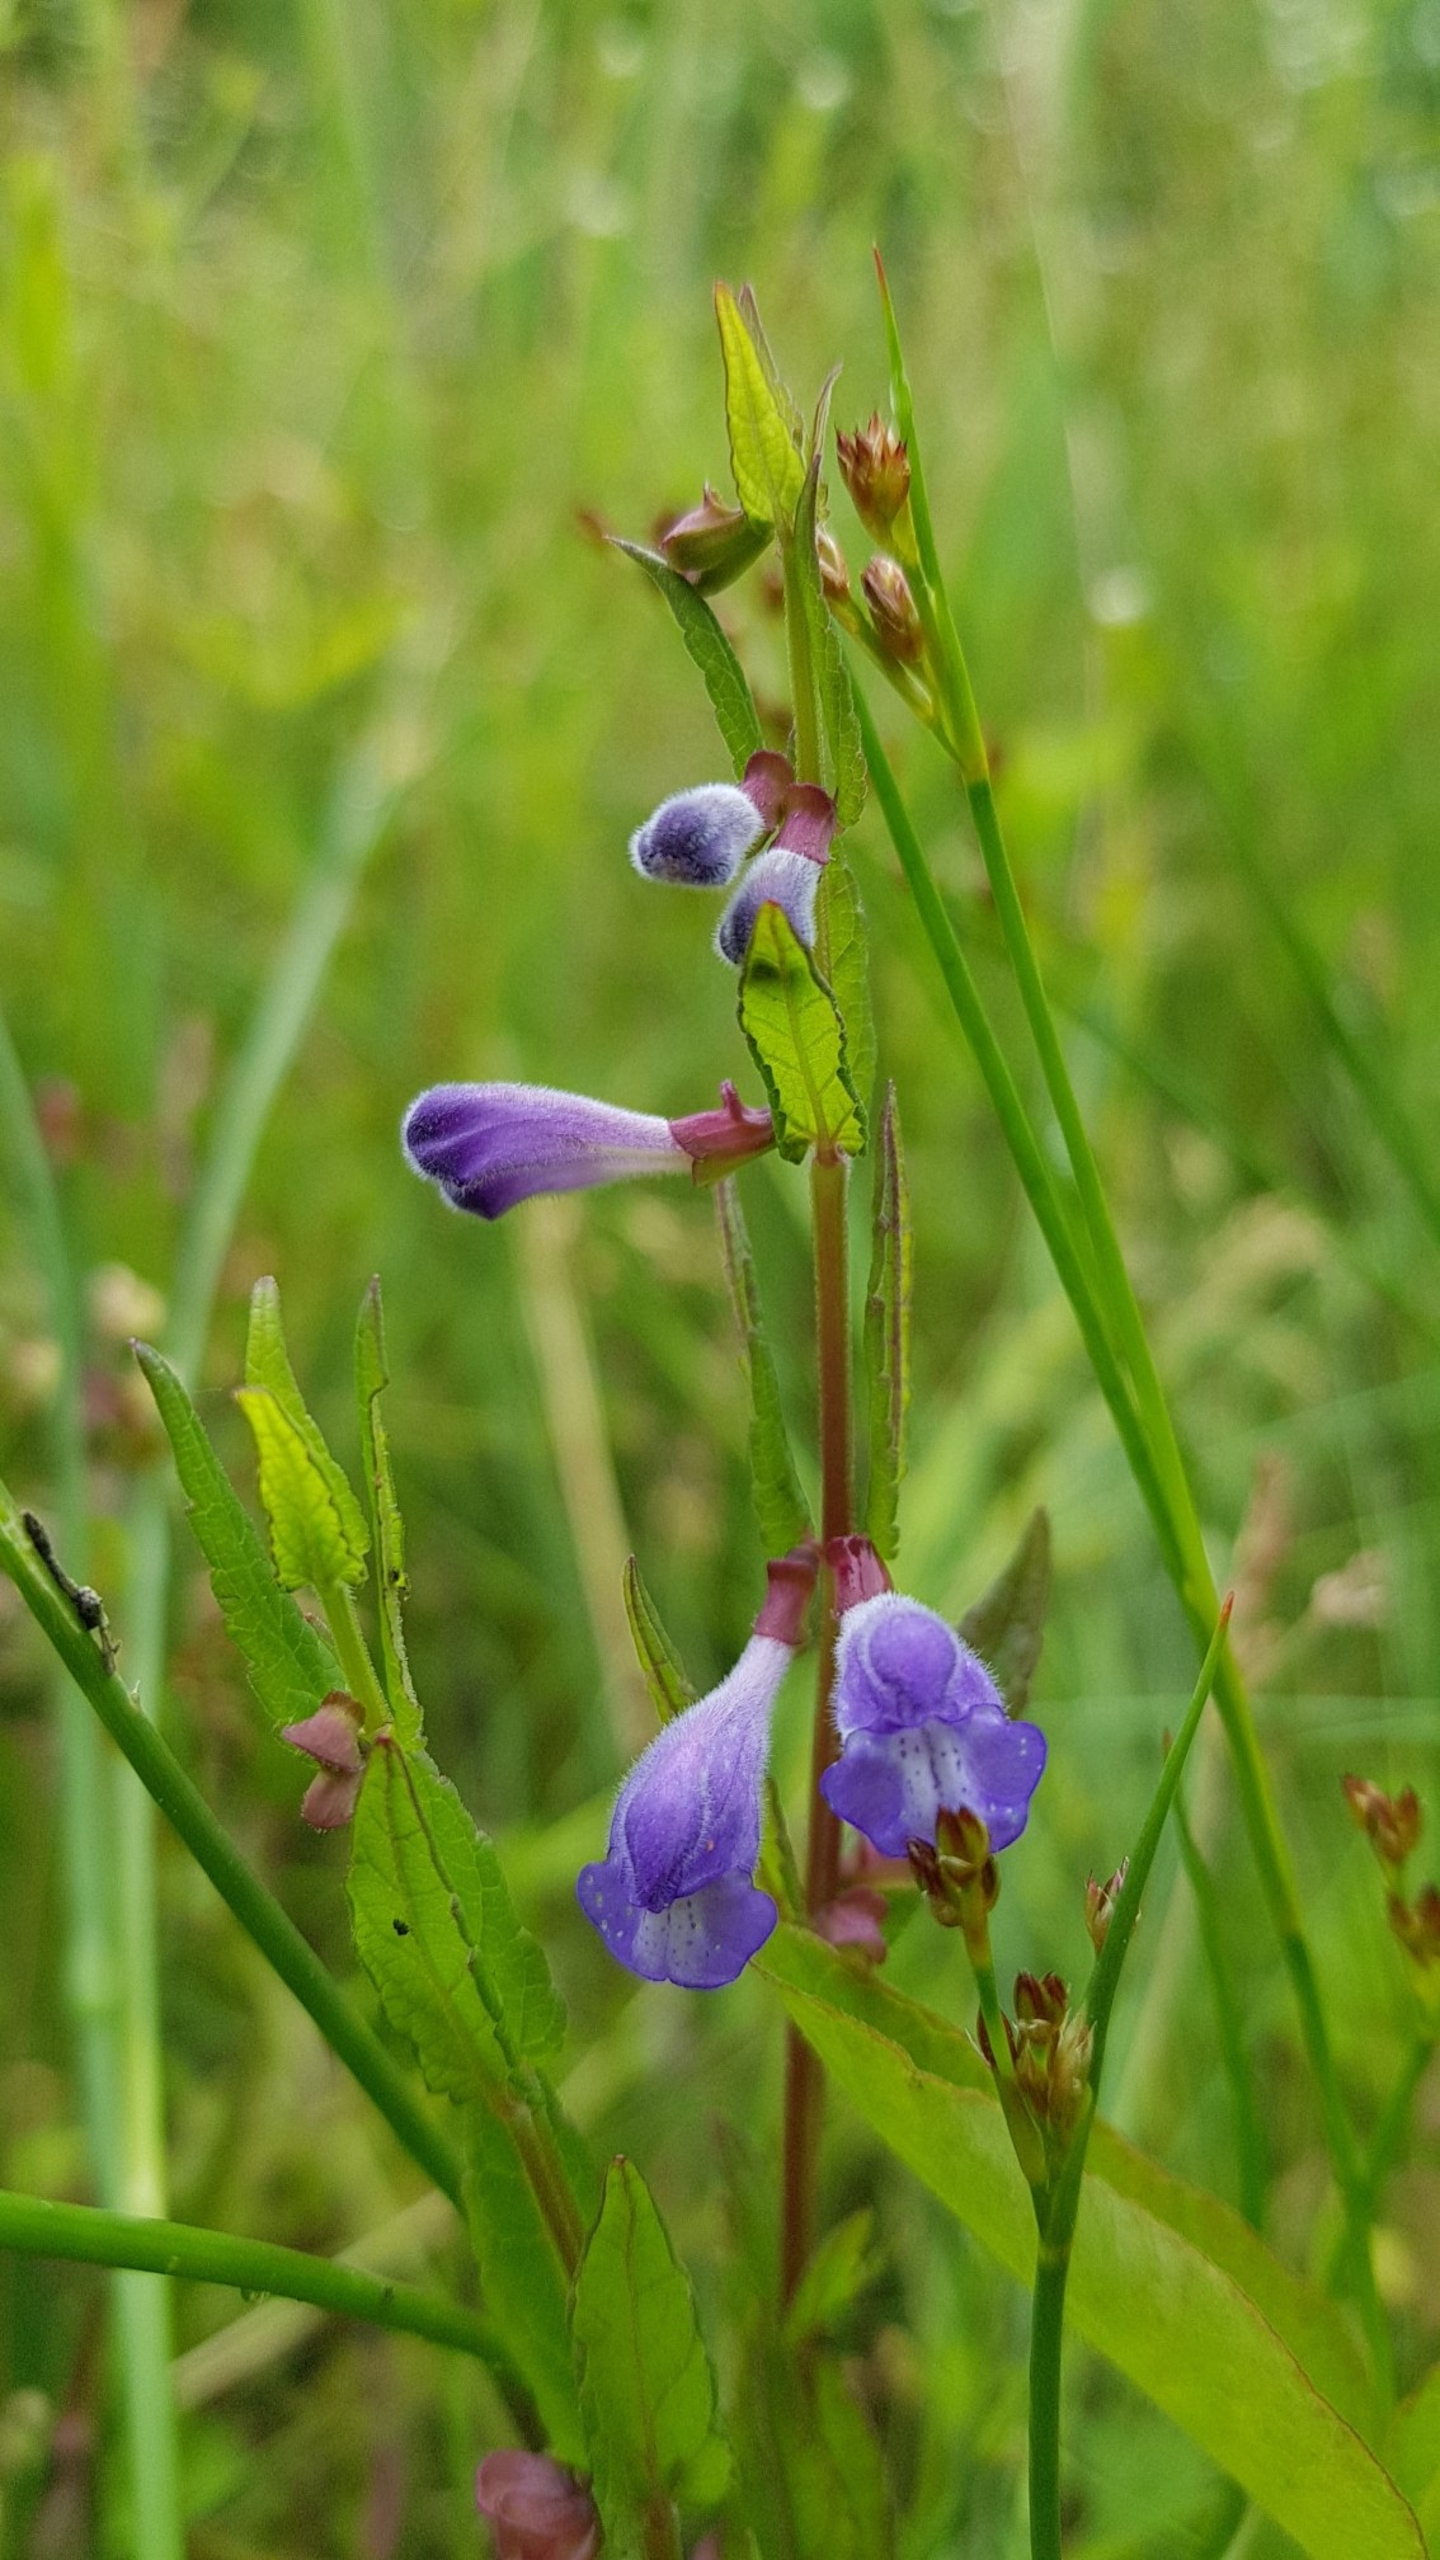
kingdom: Plantae
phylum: Tracheophyta
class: Magnoliopsida
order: Lamiales
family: Lamiaceae
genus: Scutellaria
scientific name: Scutellaria galericulata
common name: Almindelig skjolddrager
